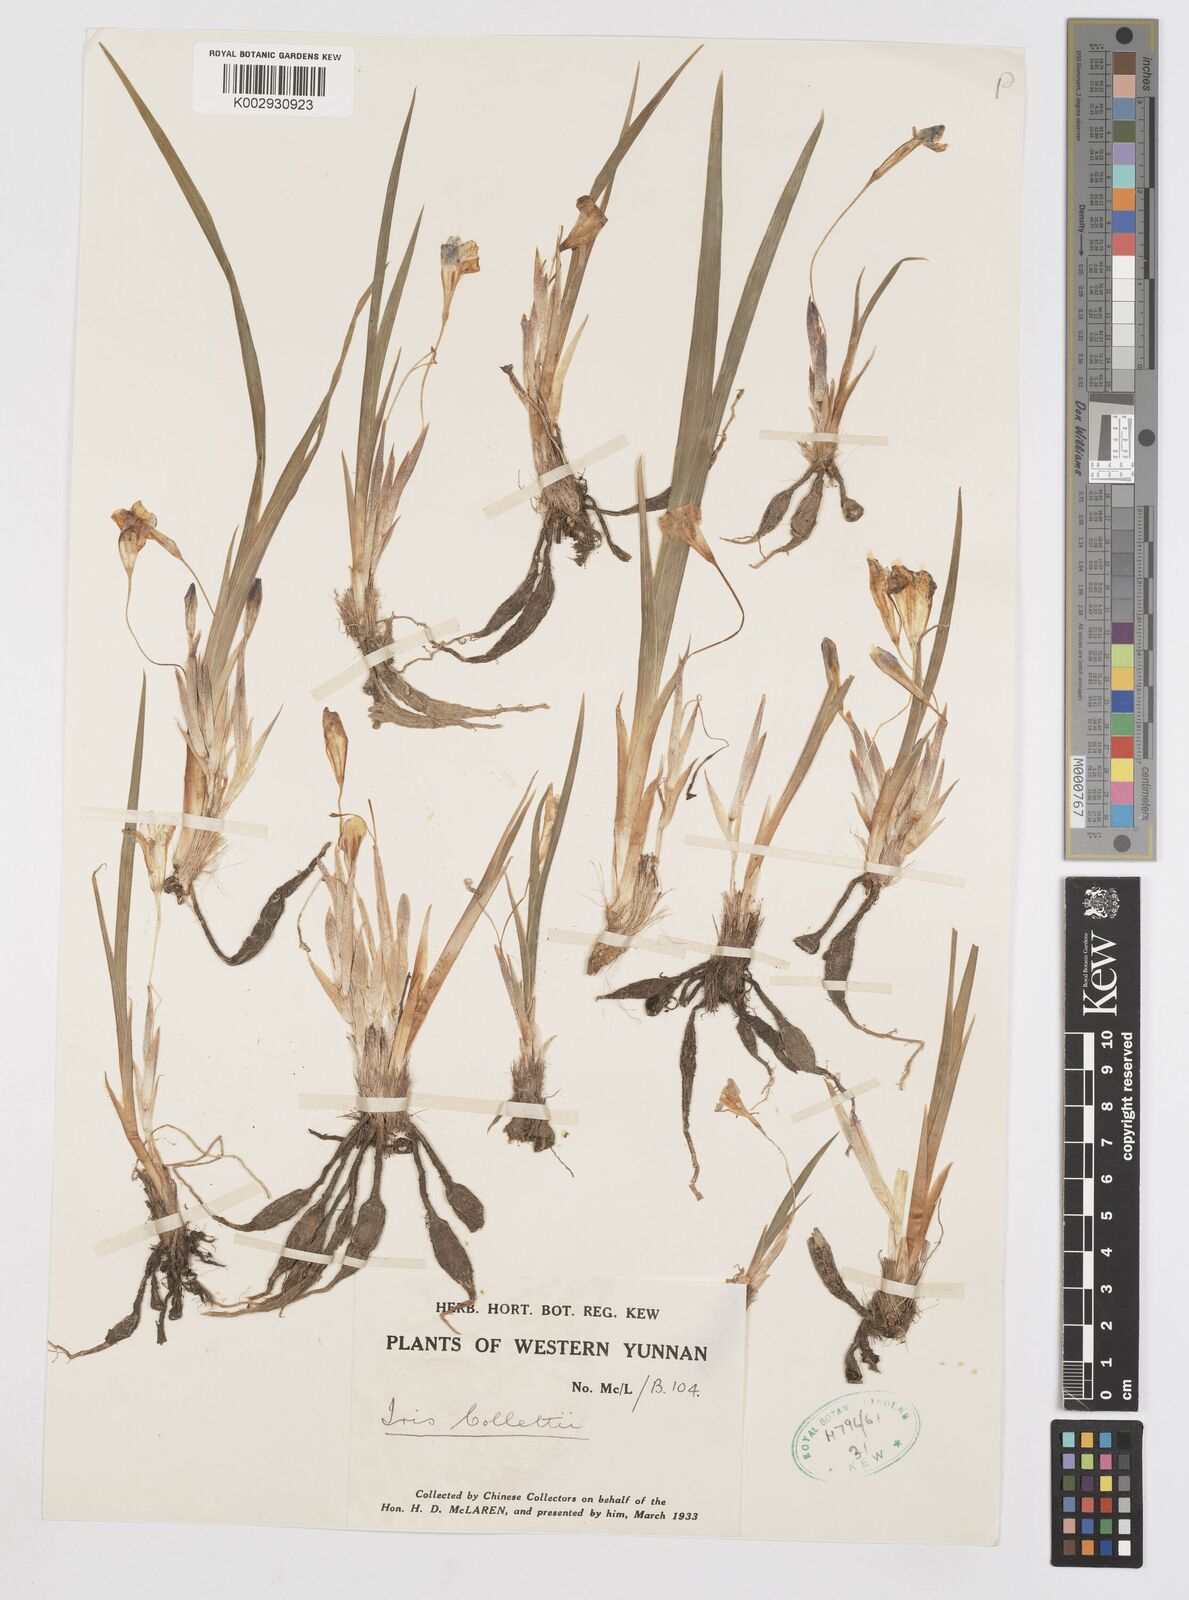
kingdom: Plantae
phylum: Tracheophyta
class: Liliopsida
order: Asparagales
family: Iridaceae
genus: Iris
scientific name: Iris collettii
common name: Plateau iris
